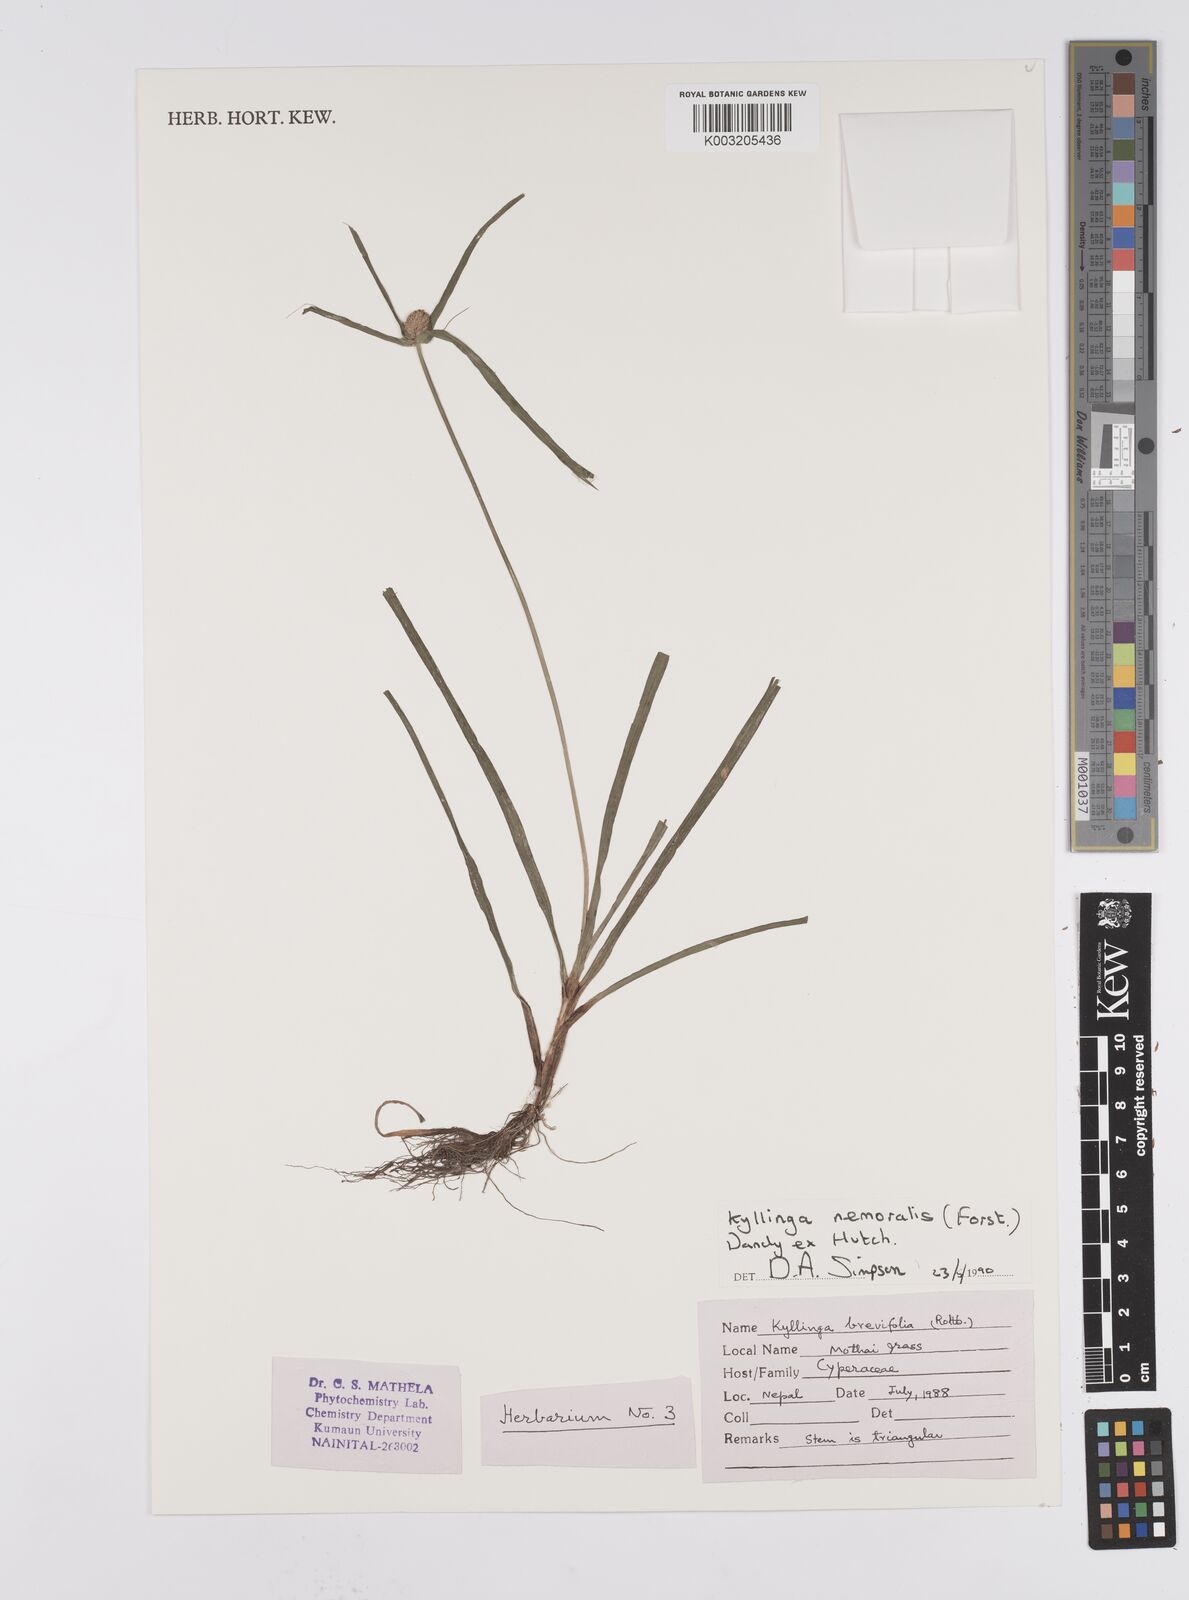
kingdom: Plantae
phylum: Tracheophyta
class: Liliopsida
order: Poales
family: Cyperaceae
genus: Cyperus
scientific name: Cyperus nemoralis
